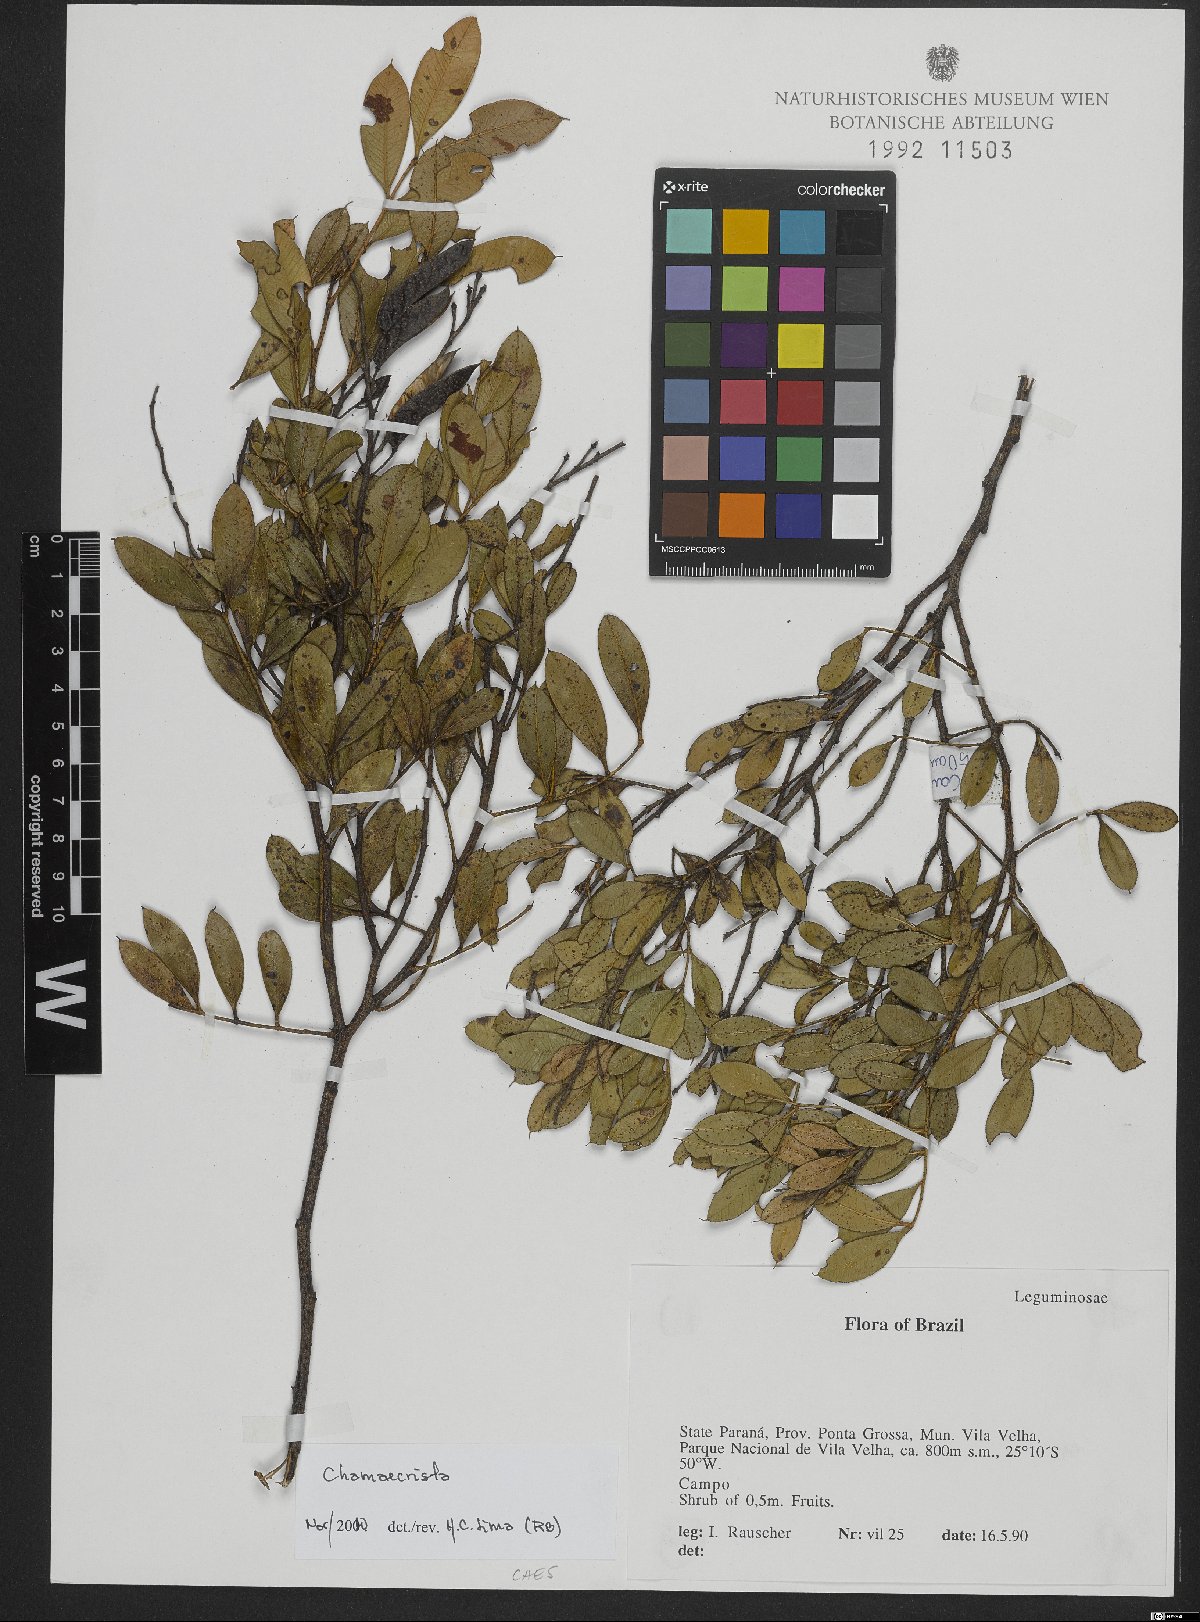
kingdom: Plantae
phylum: Tracheophyta
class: Magnoliopsida
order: Fabales
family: Fabaceae
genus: Chamaecrista
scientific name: Chamaecrista
